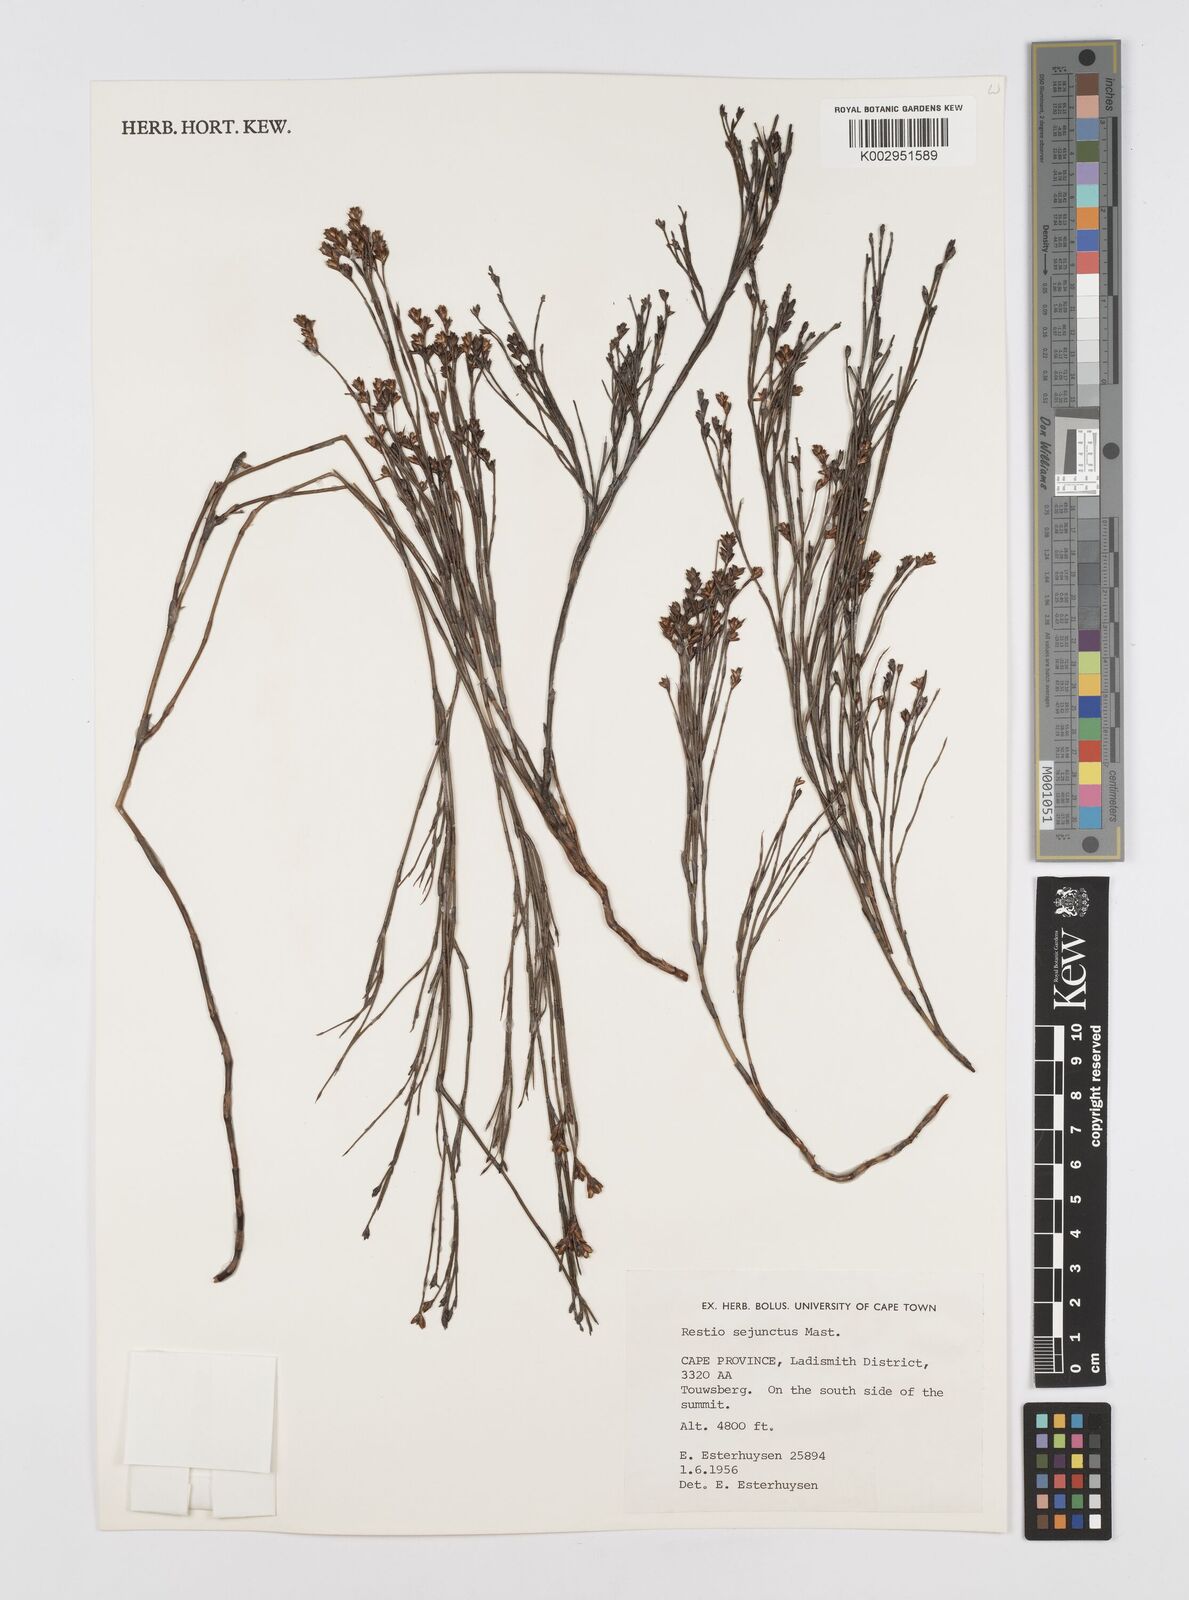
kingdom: Plantae
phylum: Tracheophyta
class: Liliopsida
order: Poales
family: Restionaceae
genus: Restio
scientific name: Restio sejunctus
